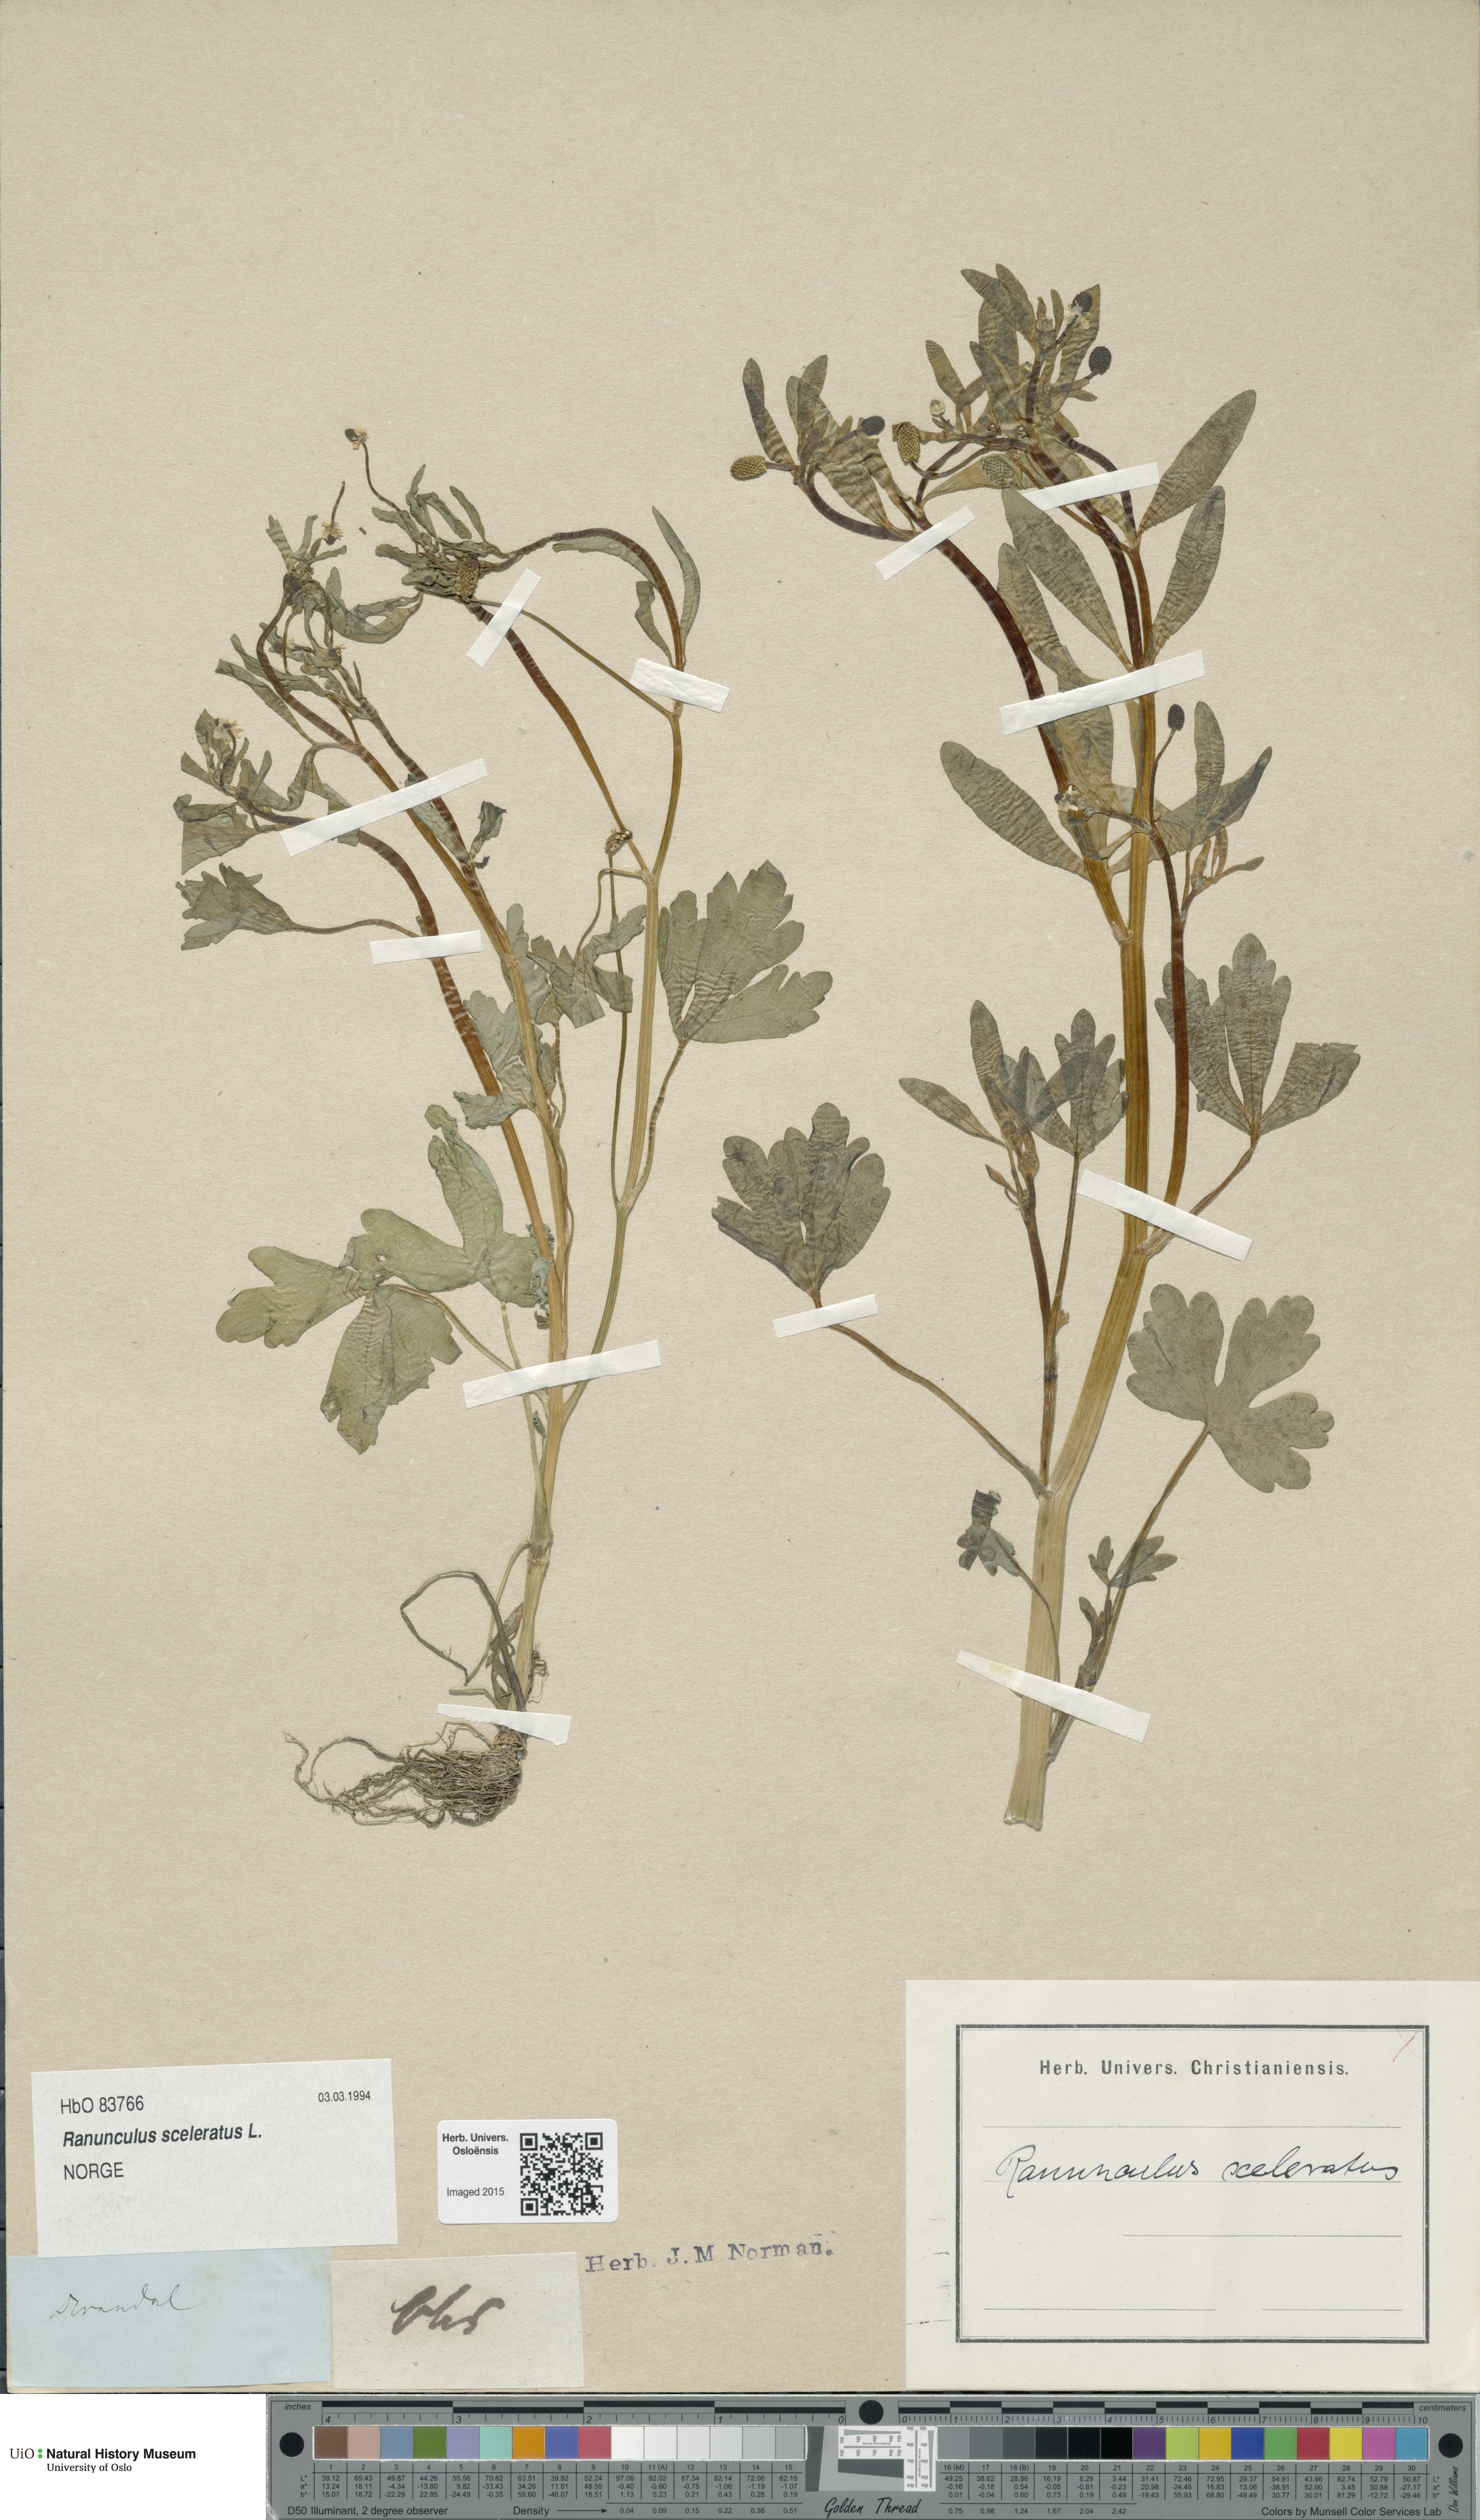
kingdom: Plantae
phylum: Tracheophyta
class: Magnoliopsida
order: Ranunculales
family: Ranunculaceae
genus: Ranunculus
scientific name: Ranunculus sceleratus
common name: Celery-leaved buttercup
